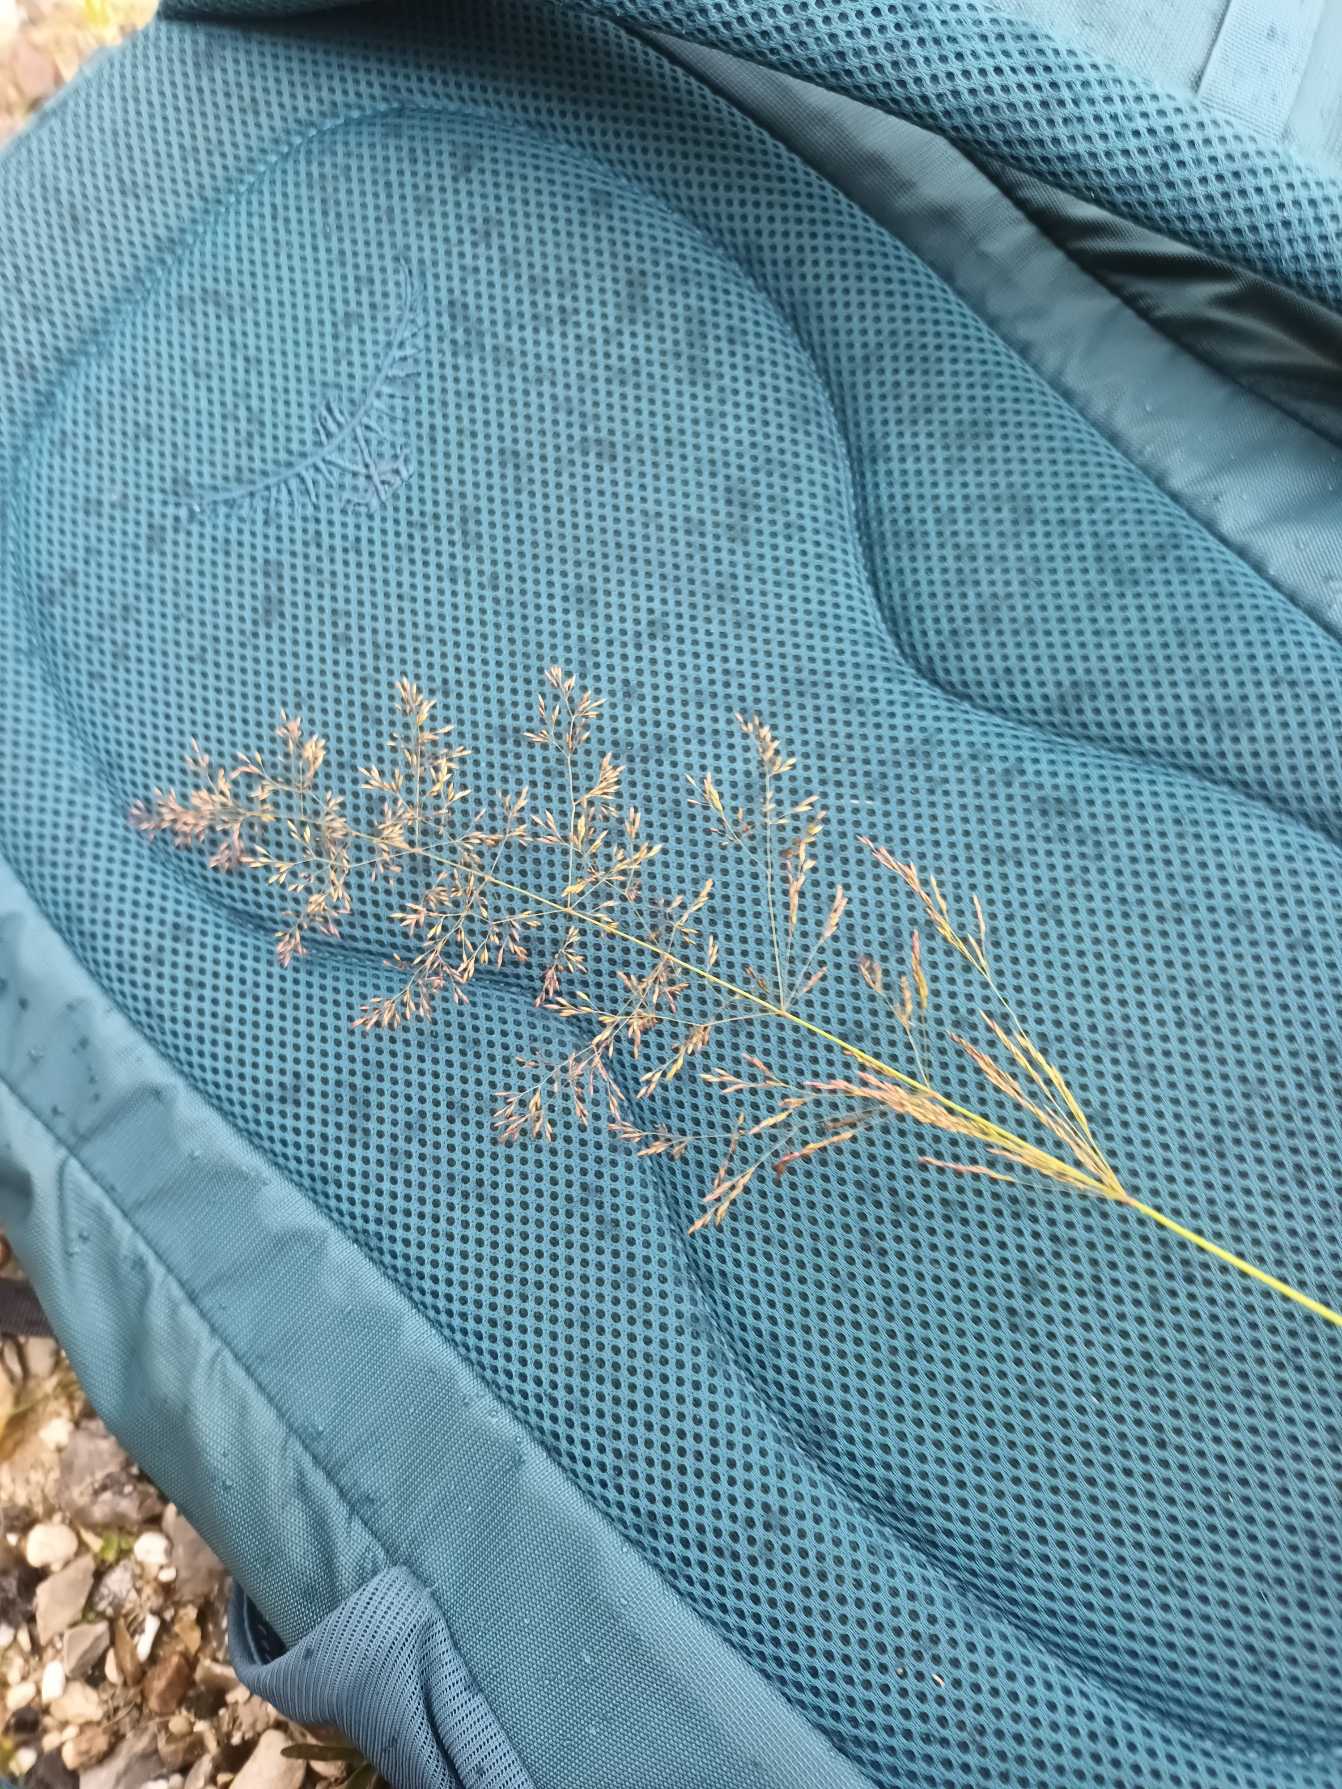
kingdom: Plantae
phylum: Tracheophyta
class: Liliopsida
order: Poales
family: Poaceae
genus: Agrostis
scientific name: Agrostis gigantea
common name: Stortoppet hvene
